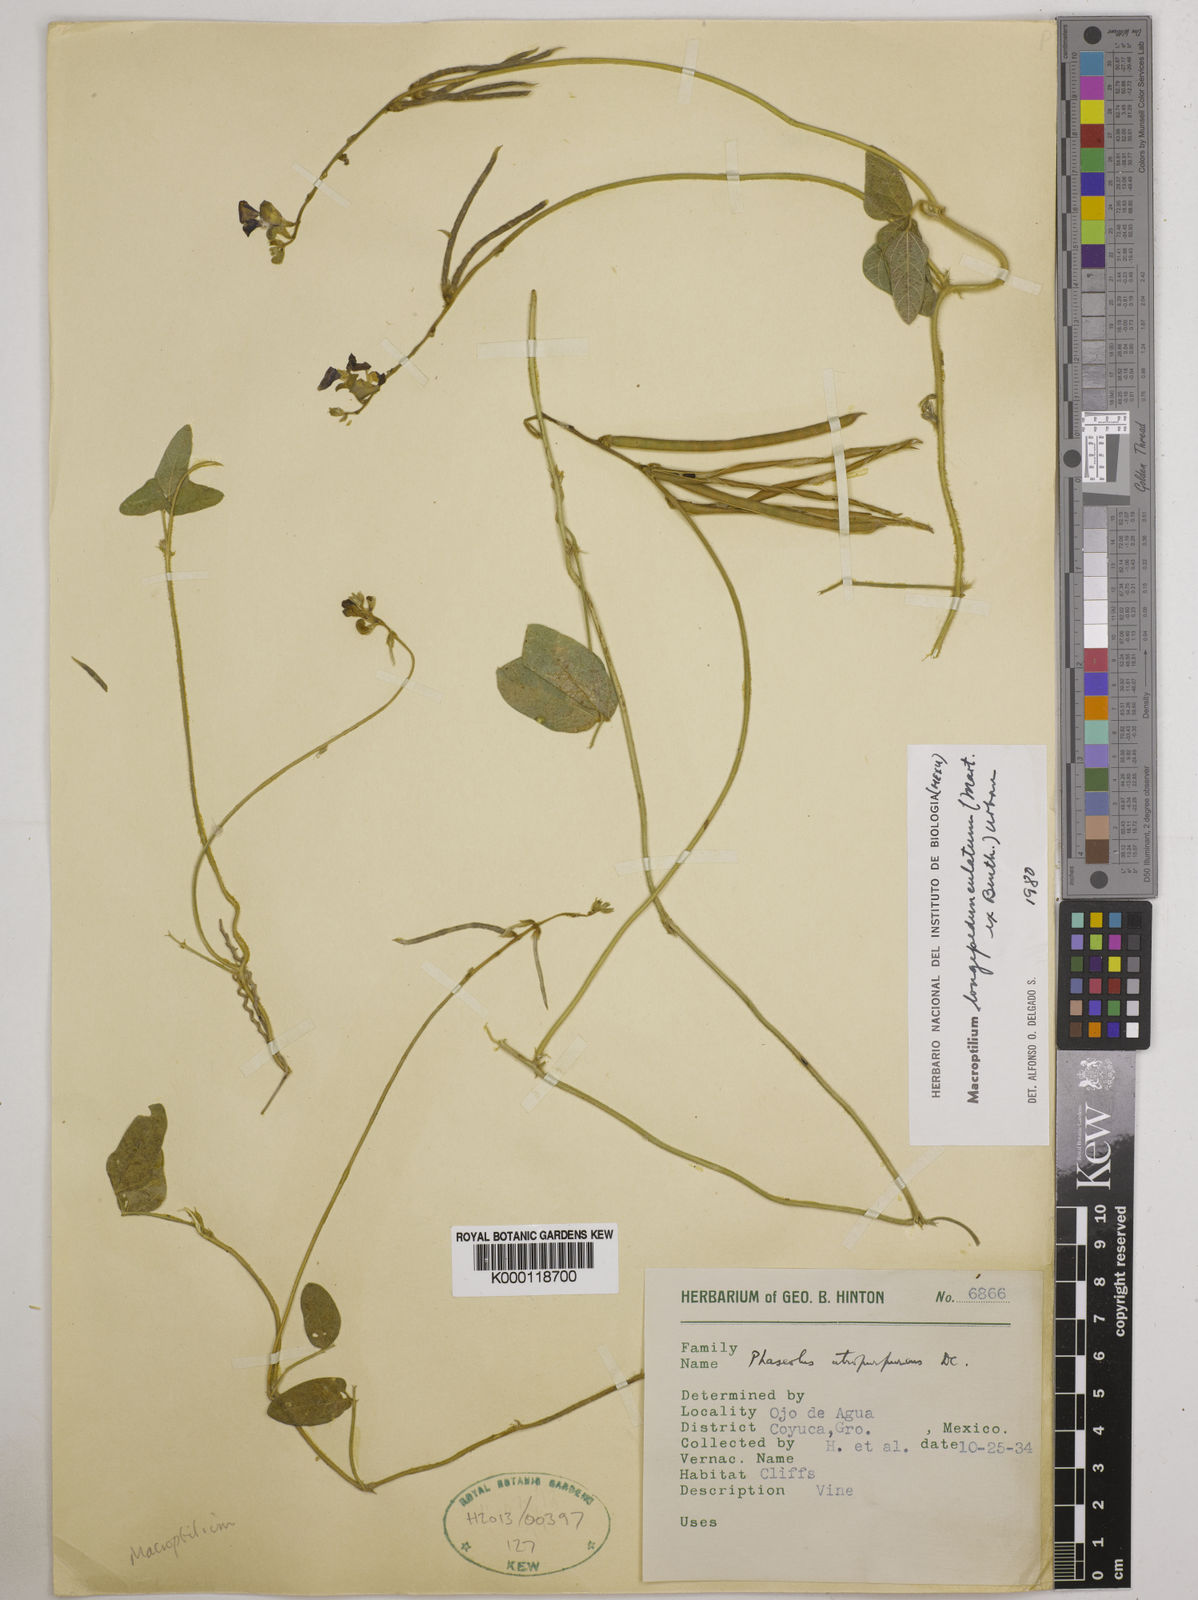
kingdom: Plantae
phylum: Tracheophyta
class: Magnoliopsida
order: Fabales
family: Fabaceae
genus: Macroptilium
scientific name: Macroptilium longepedunculatum
